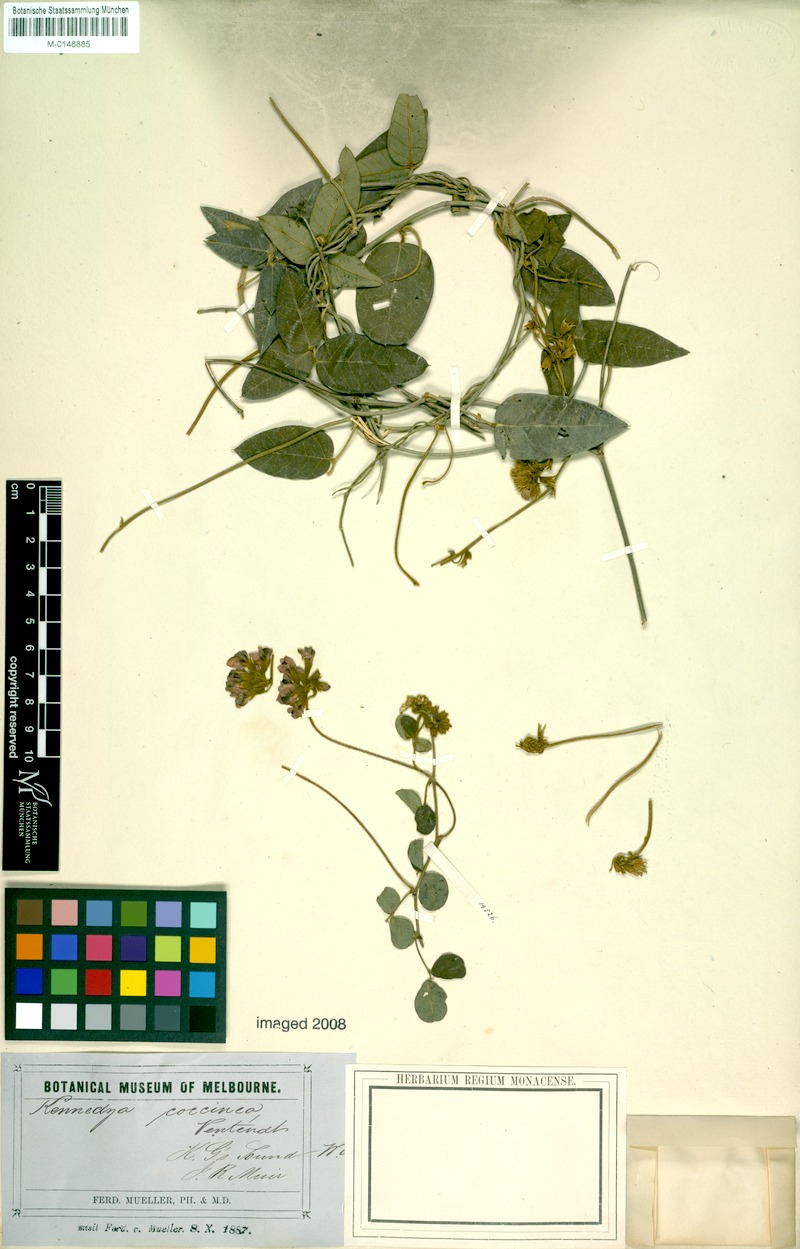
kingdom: Plantae
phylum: Tracheophyta
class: Magnoliopsida
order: Fabales
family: Fabaceae
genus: Kennedia
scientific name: Kennedia coccinea
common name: Coralvine
